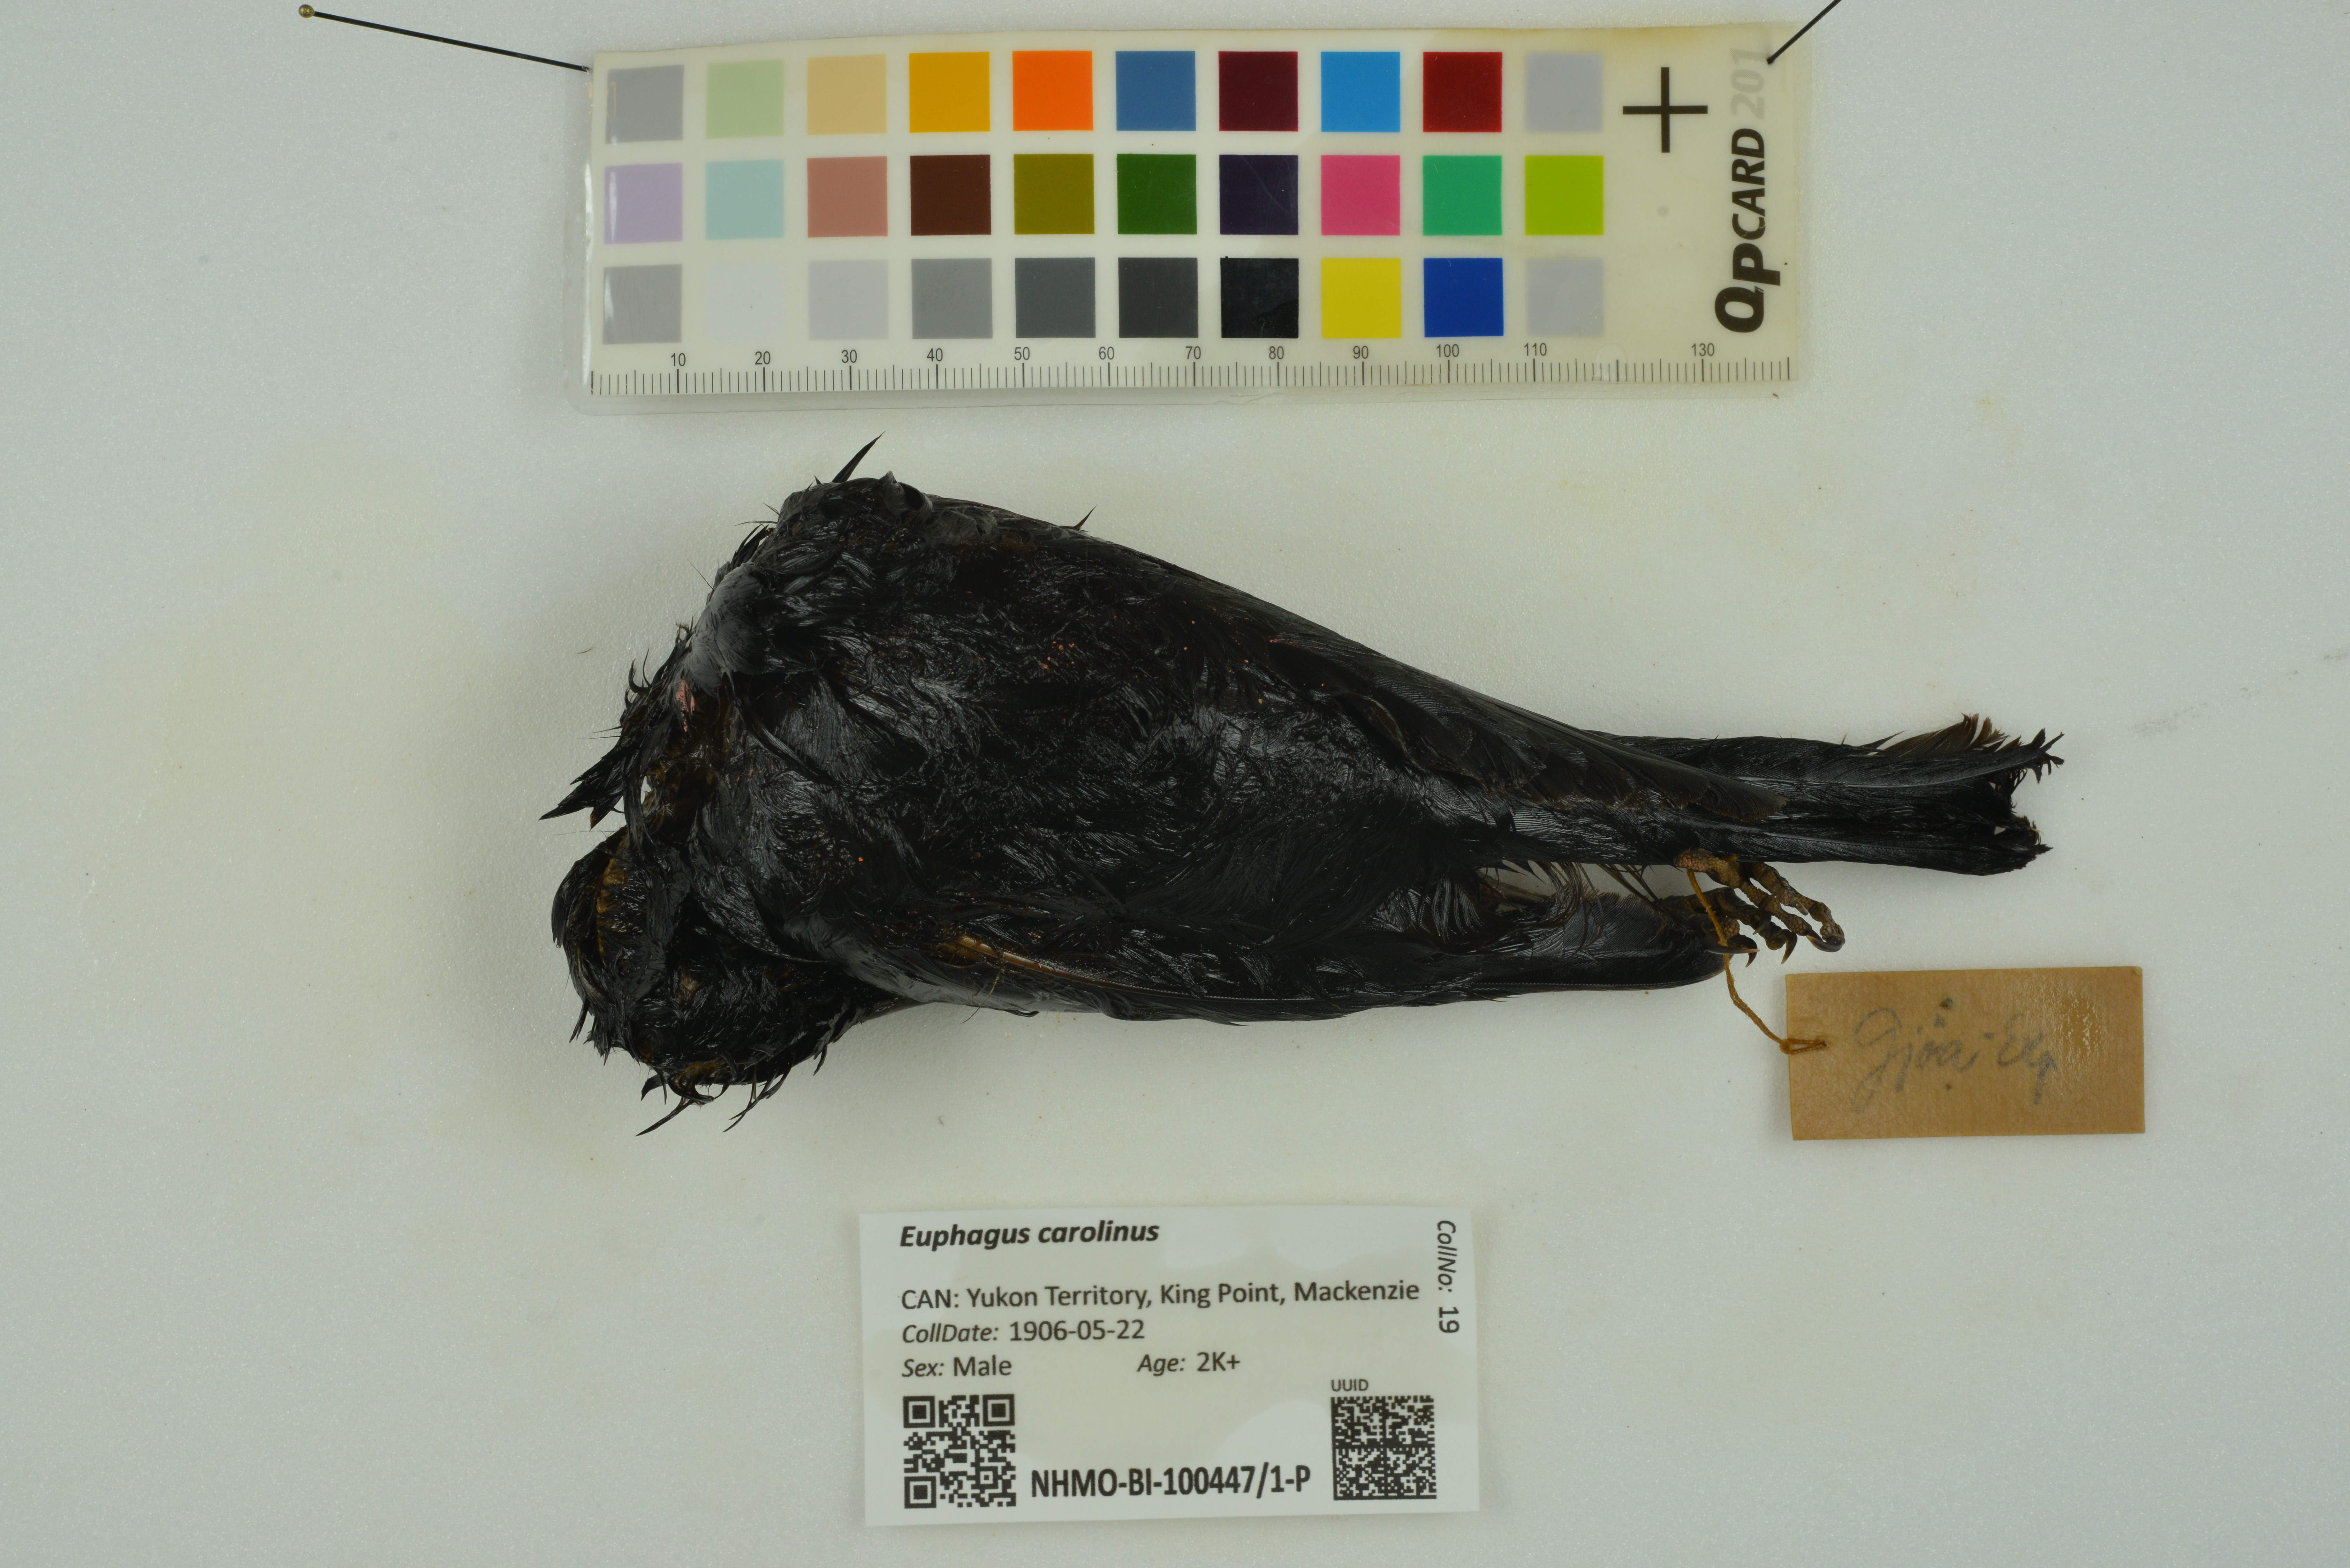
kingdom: Animalia
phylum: Chordata
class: Aves
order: Passeriformes
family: Icteridae
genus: Euphagus
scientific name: Euphagus carolinus
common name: Rusty blackbird
